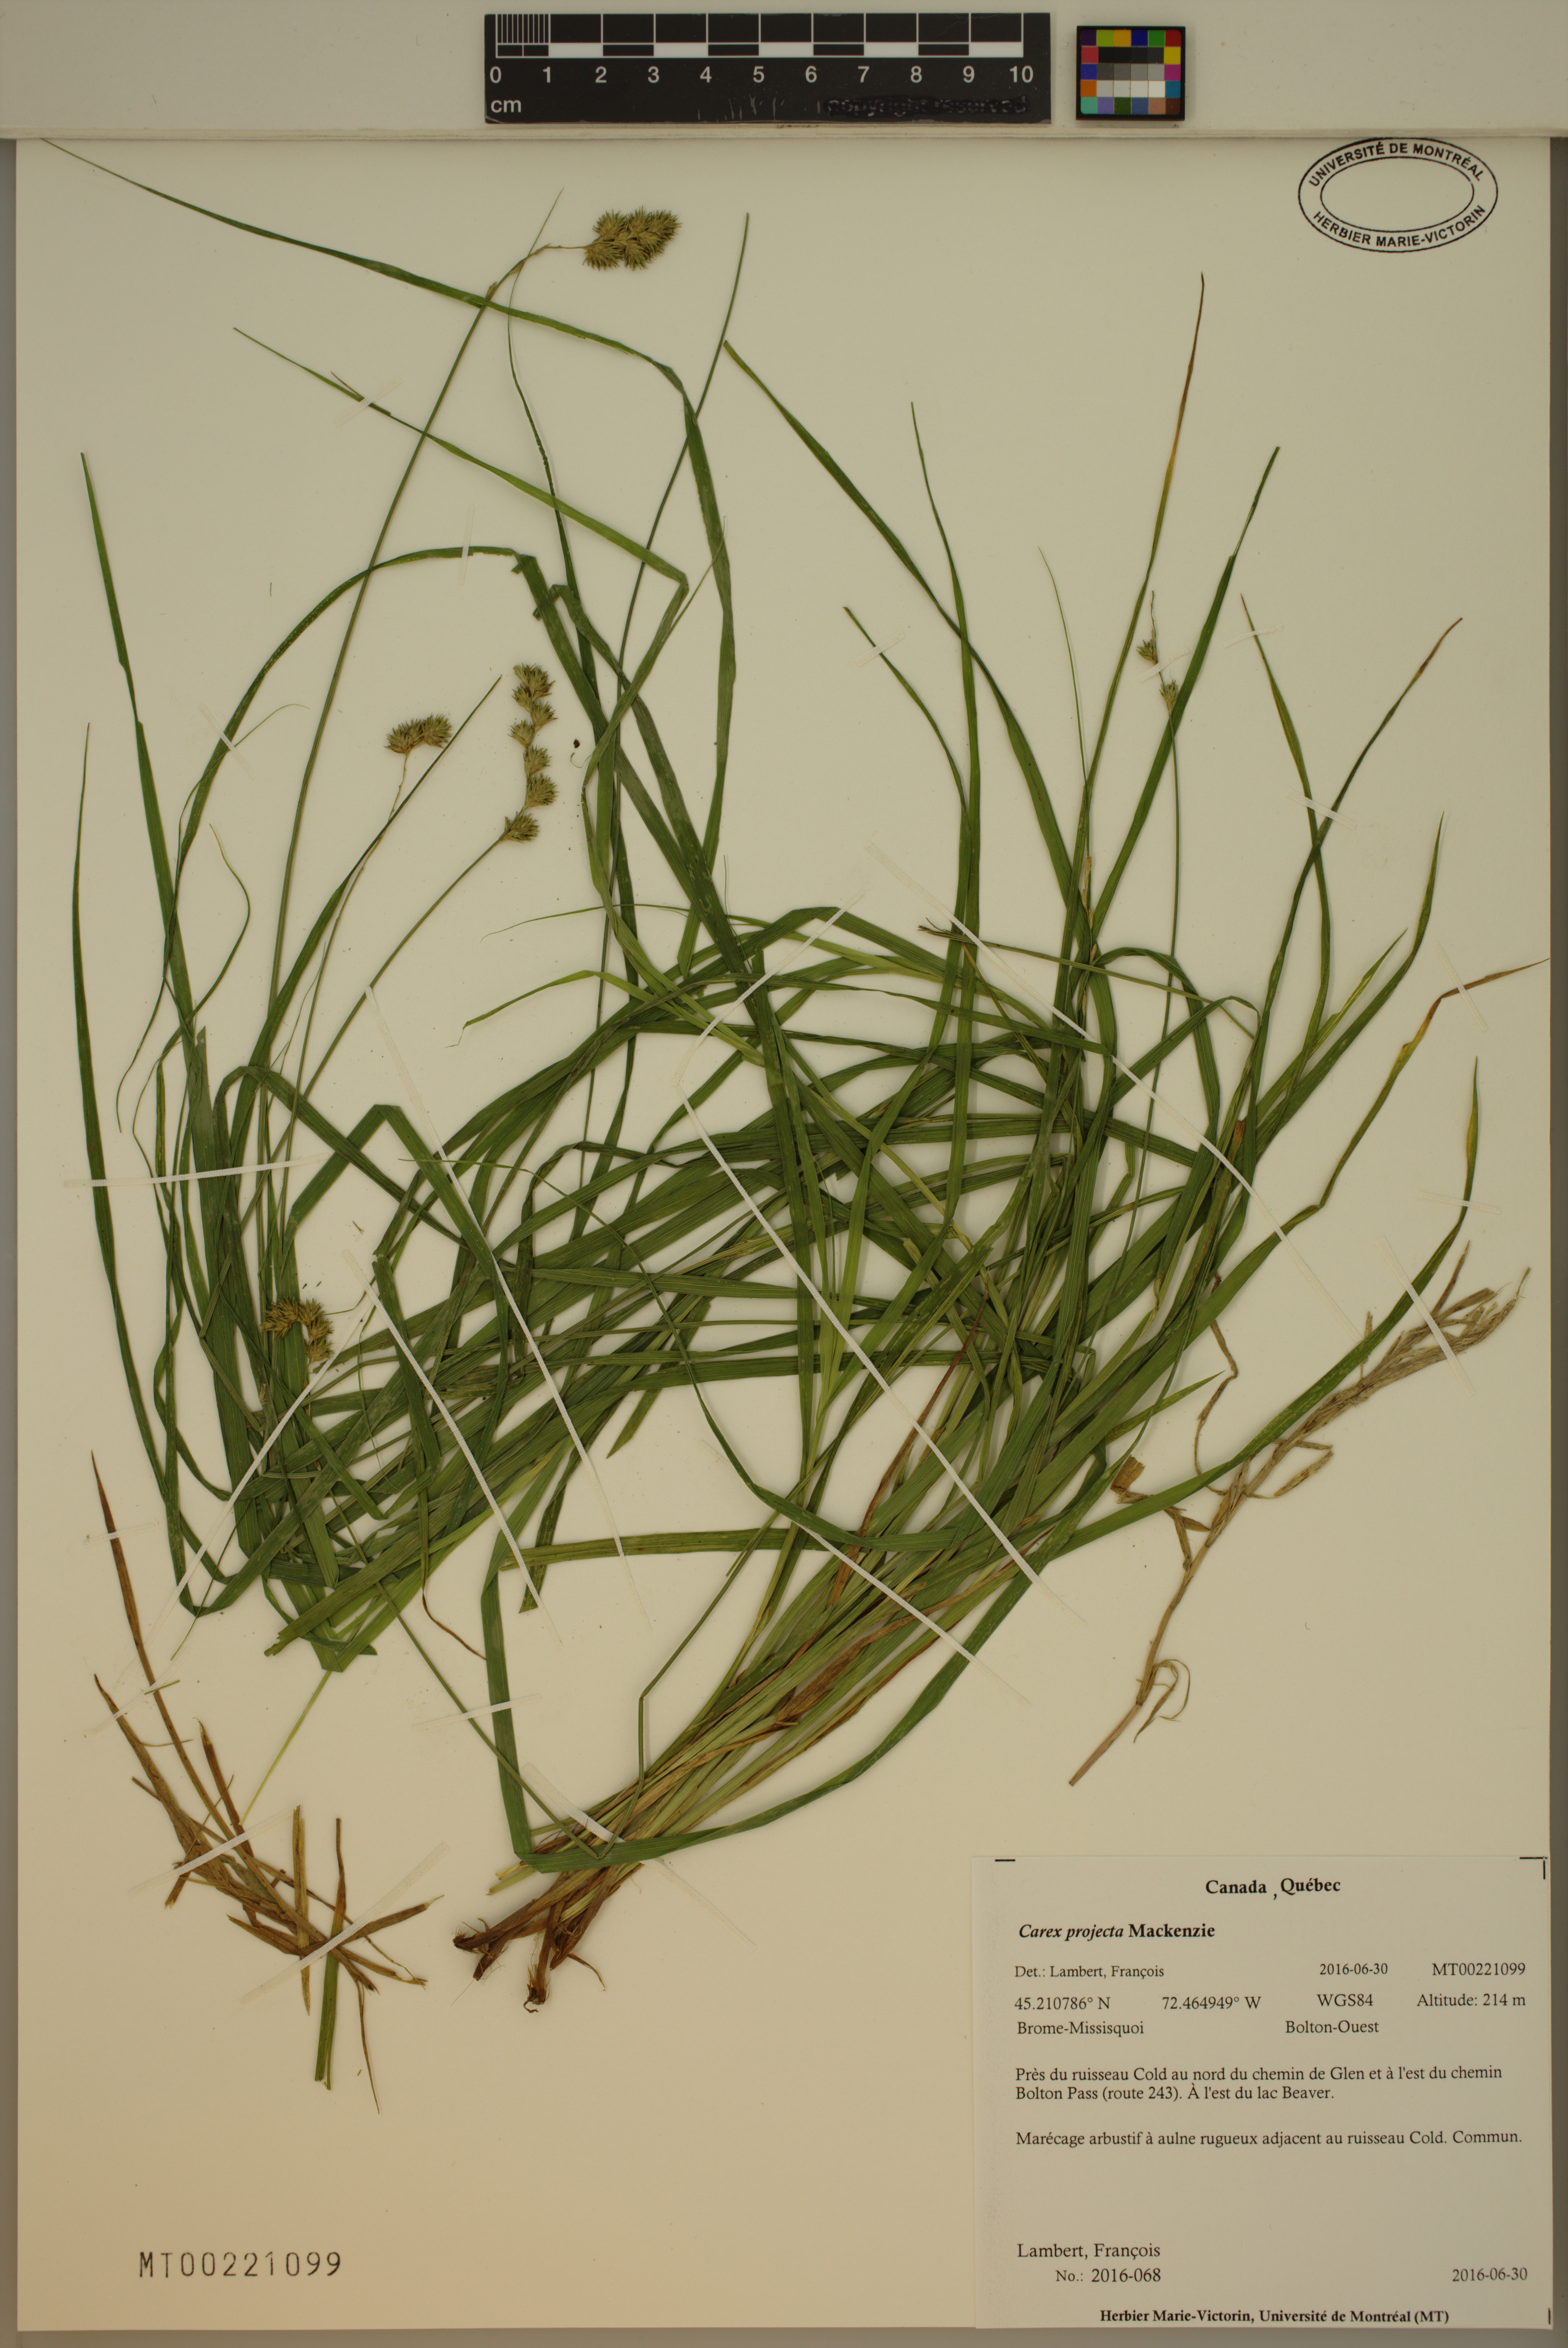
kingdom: Plantae
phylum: Tracheophyta
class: Liliopsida
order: Poales
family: Cyperaceae
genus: Carex
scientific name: Carex projecta
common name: Loose-headed oval sedge
